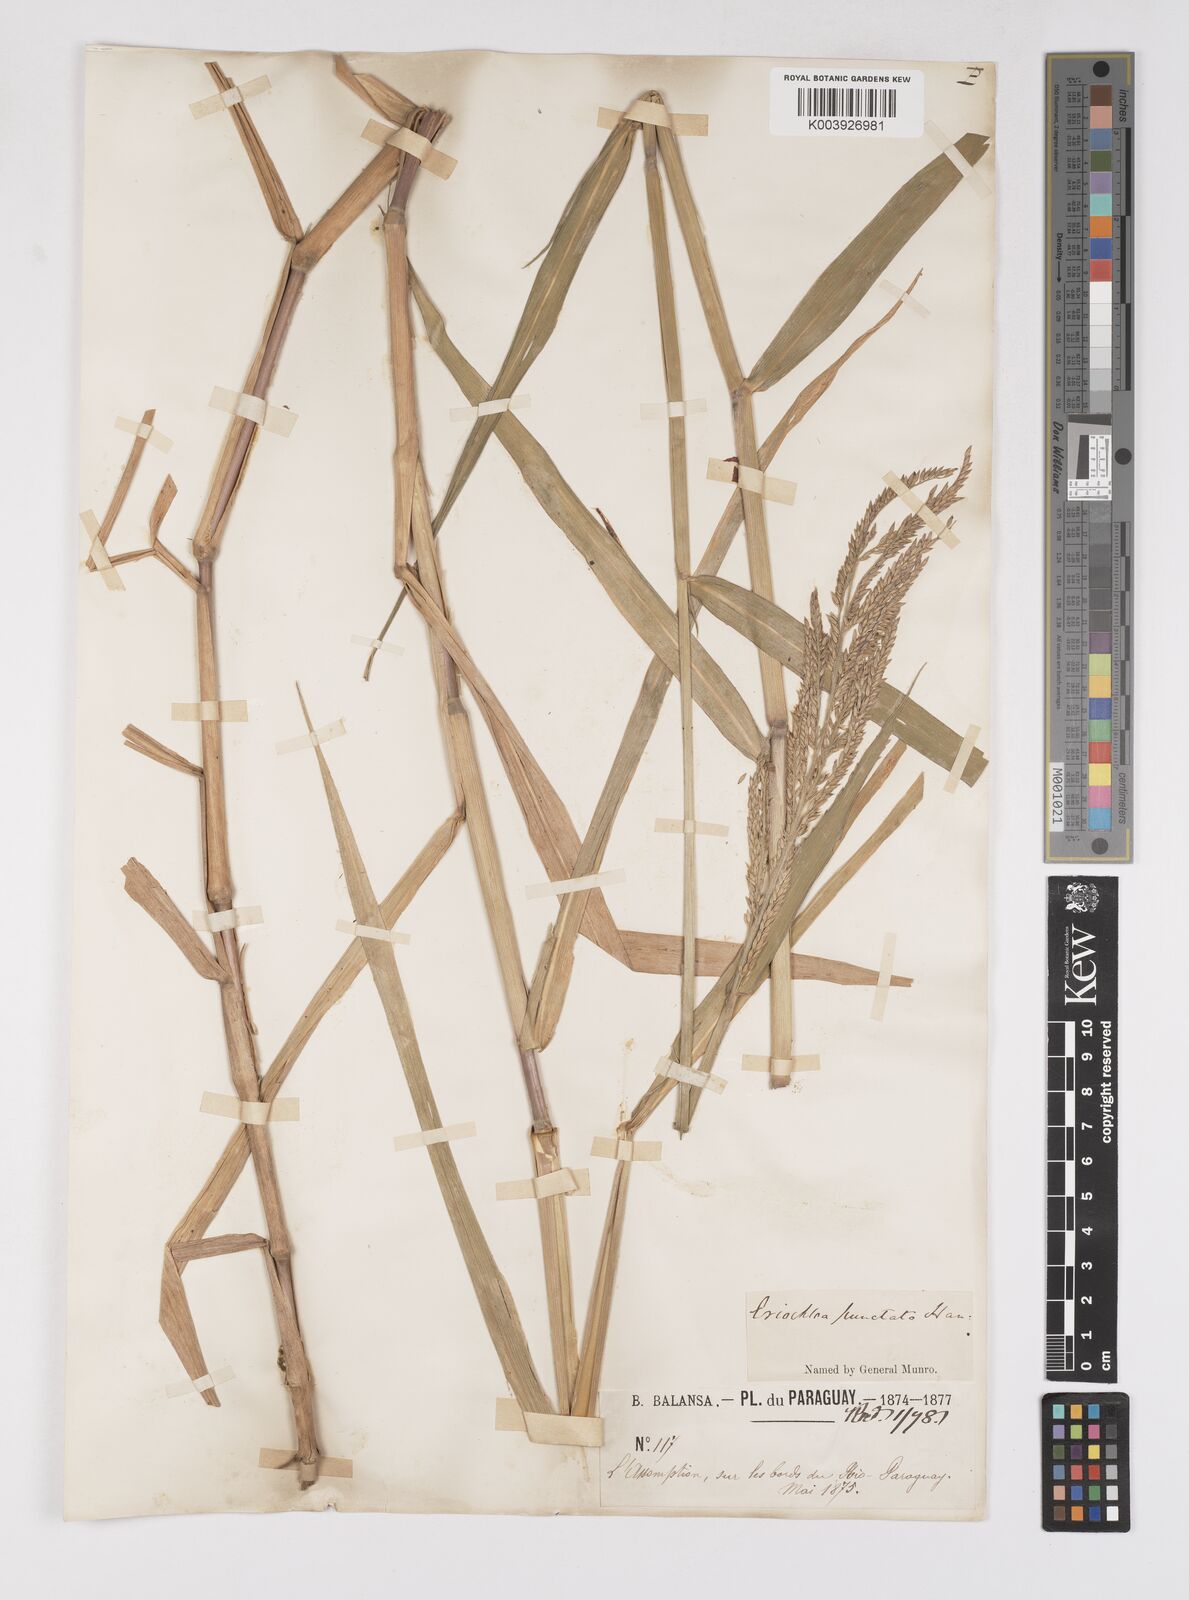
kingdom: Plantae
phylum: Tracheophyta
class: Liliopsida
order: Poales
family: Poaceae
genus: Eriochloa
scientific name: Eriochloa punctata
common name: Louisiana cupgrass
